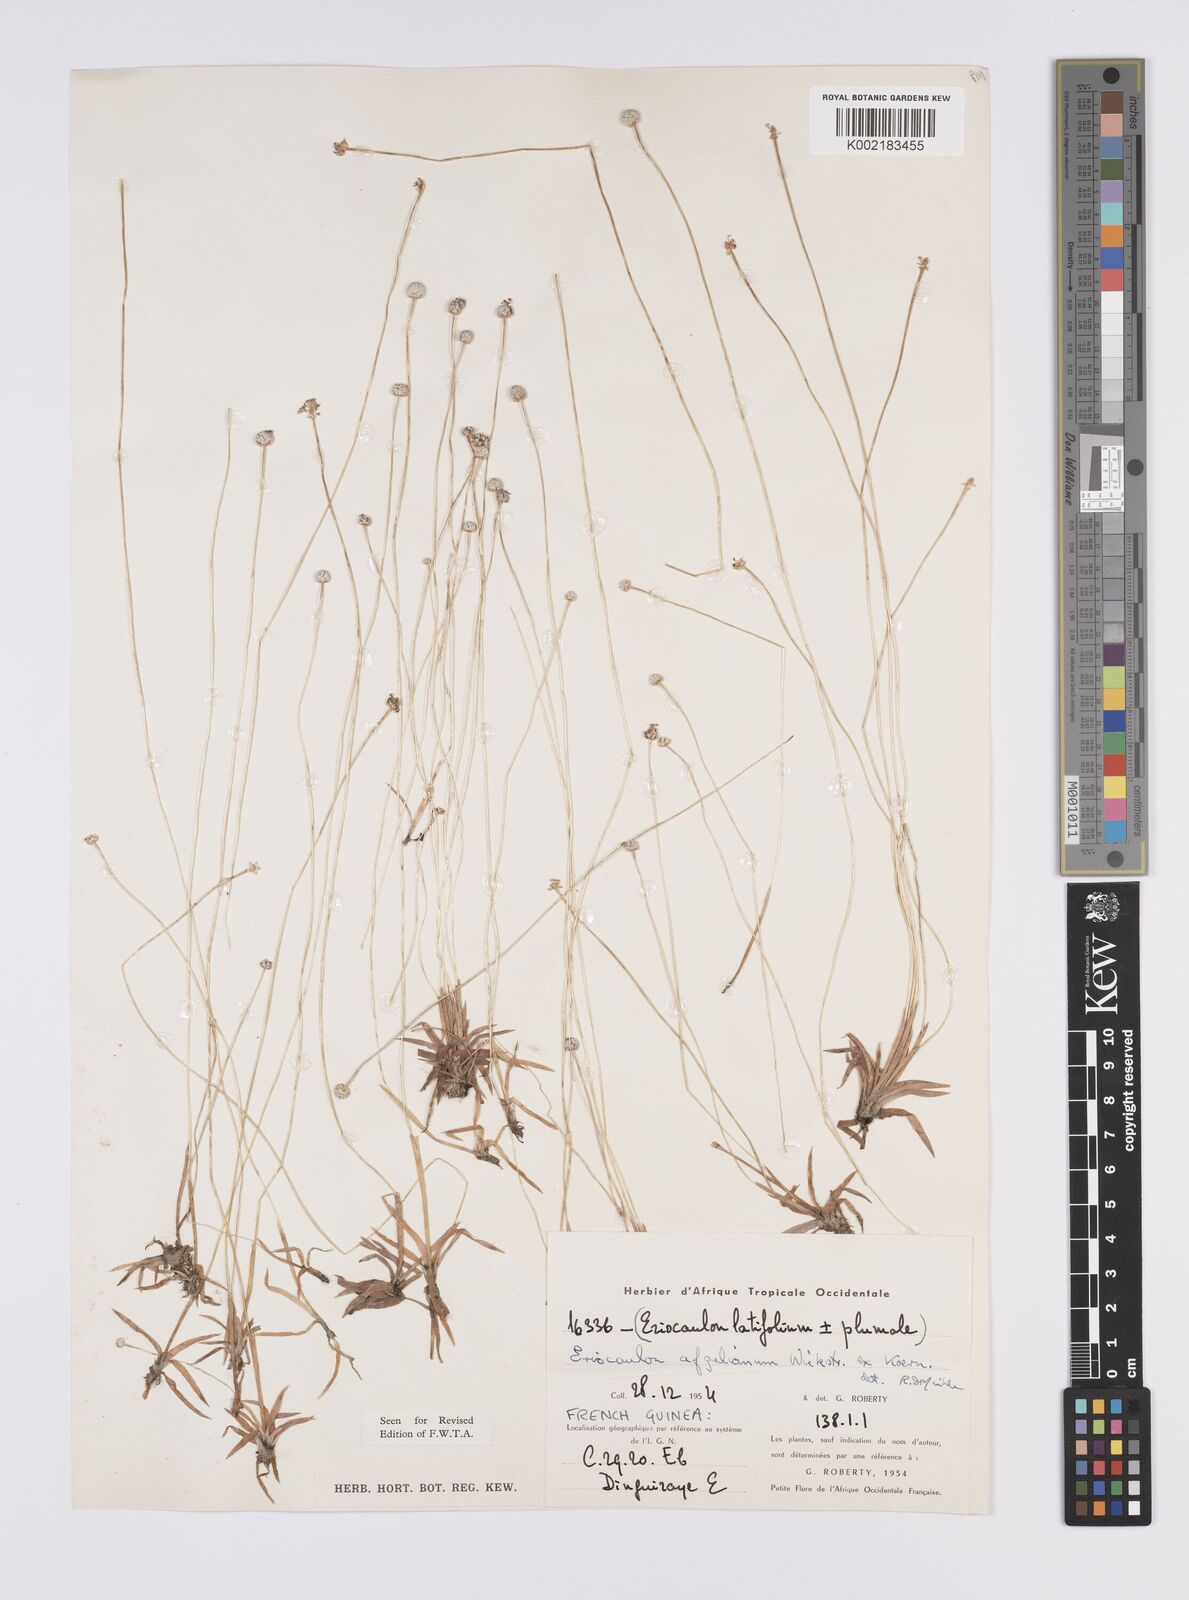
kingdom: Plantae
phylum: Tracheophyta
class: Liliopsida
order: Poales
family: Eriocaulaceae
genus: Eriocaulon
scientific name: Eriocaulon afzelianum
